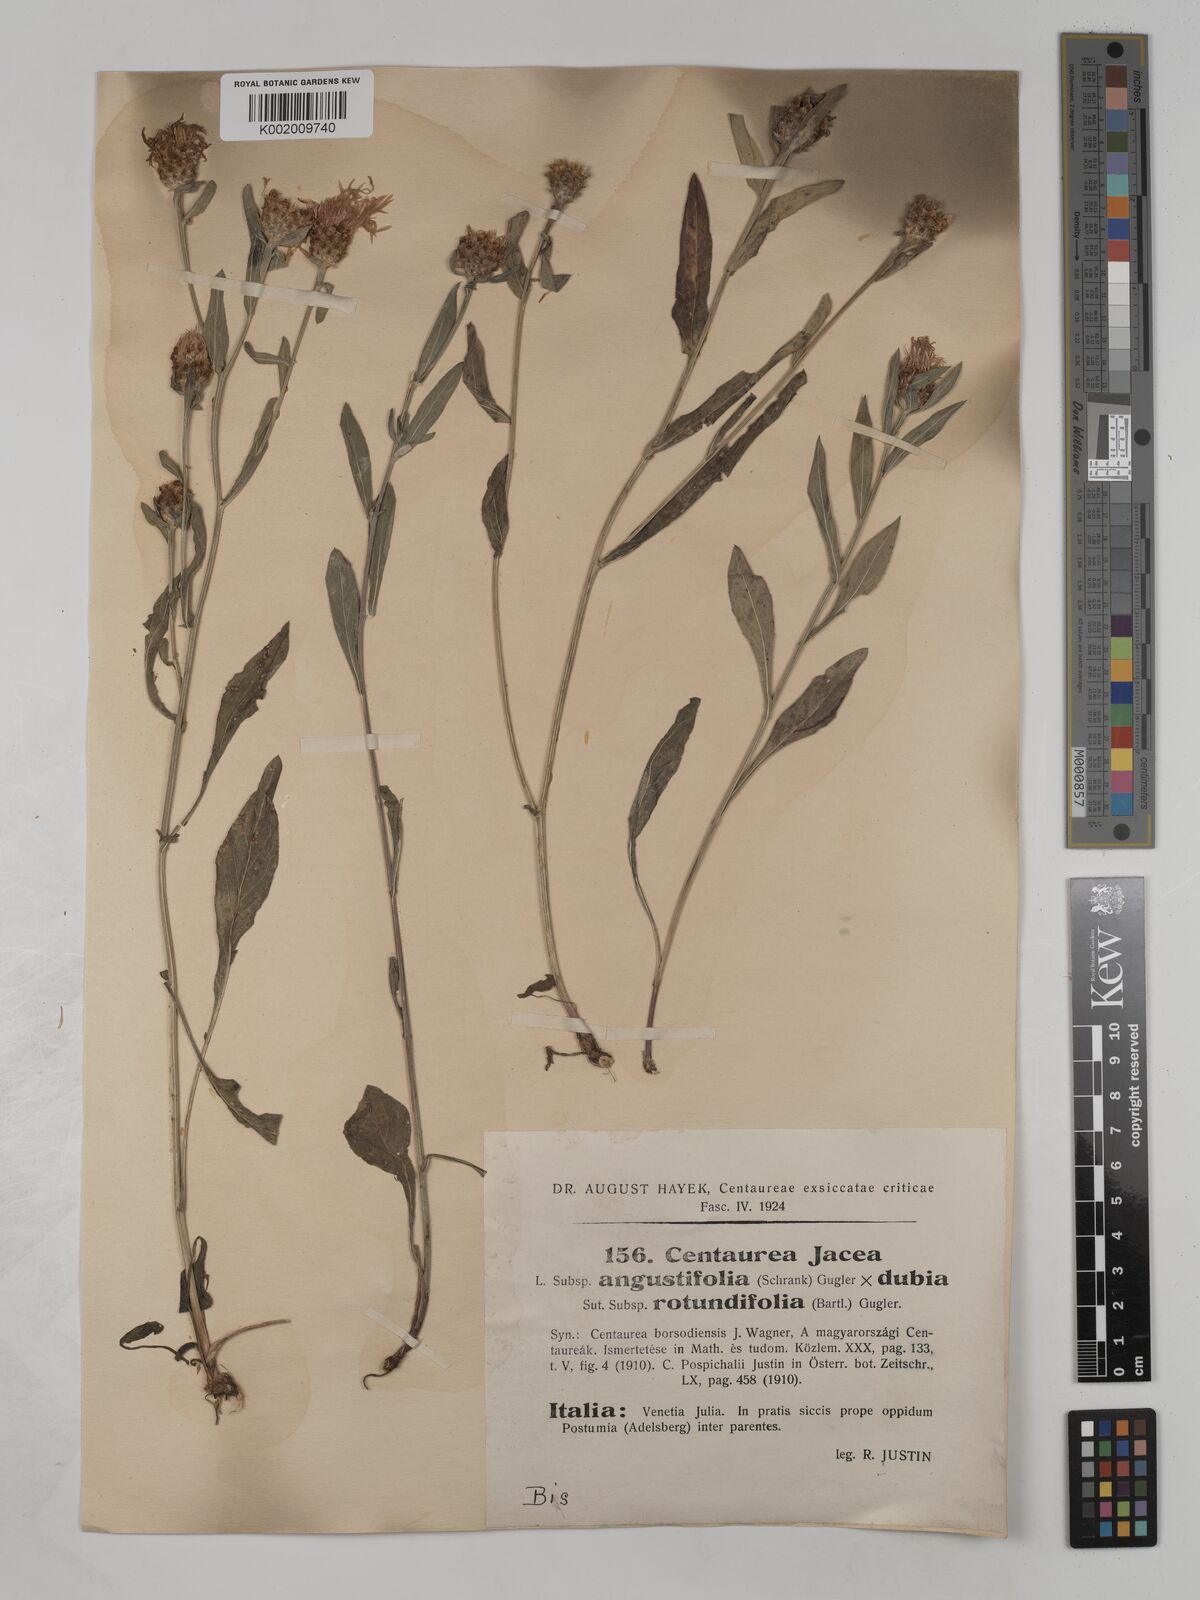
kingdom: Plantae
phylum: Tracheophyta
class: Magnoliopsida
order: Asterales
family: Asteraceae
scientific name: Asteraceae
